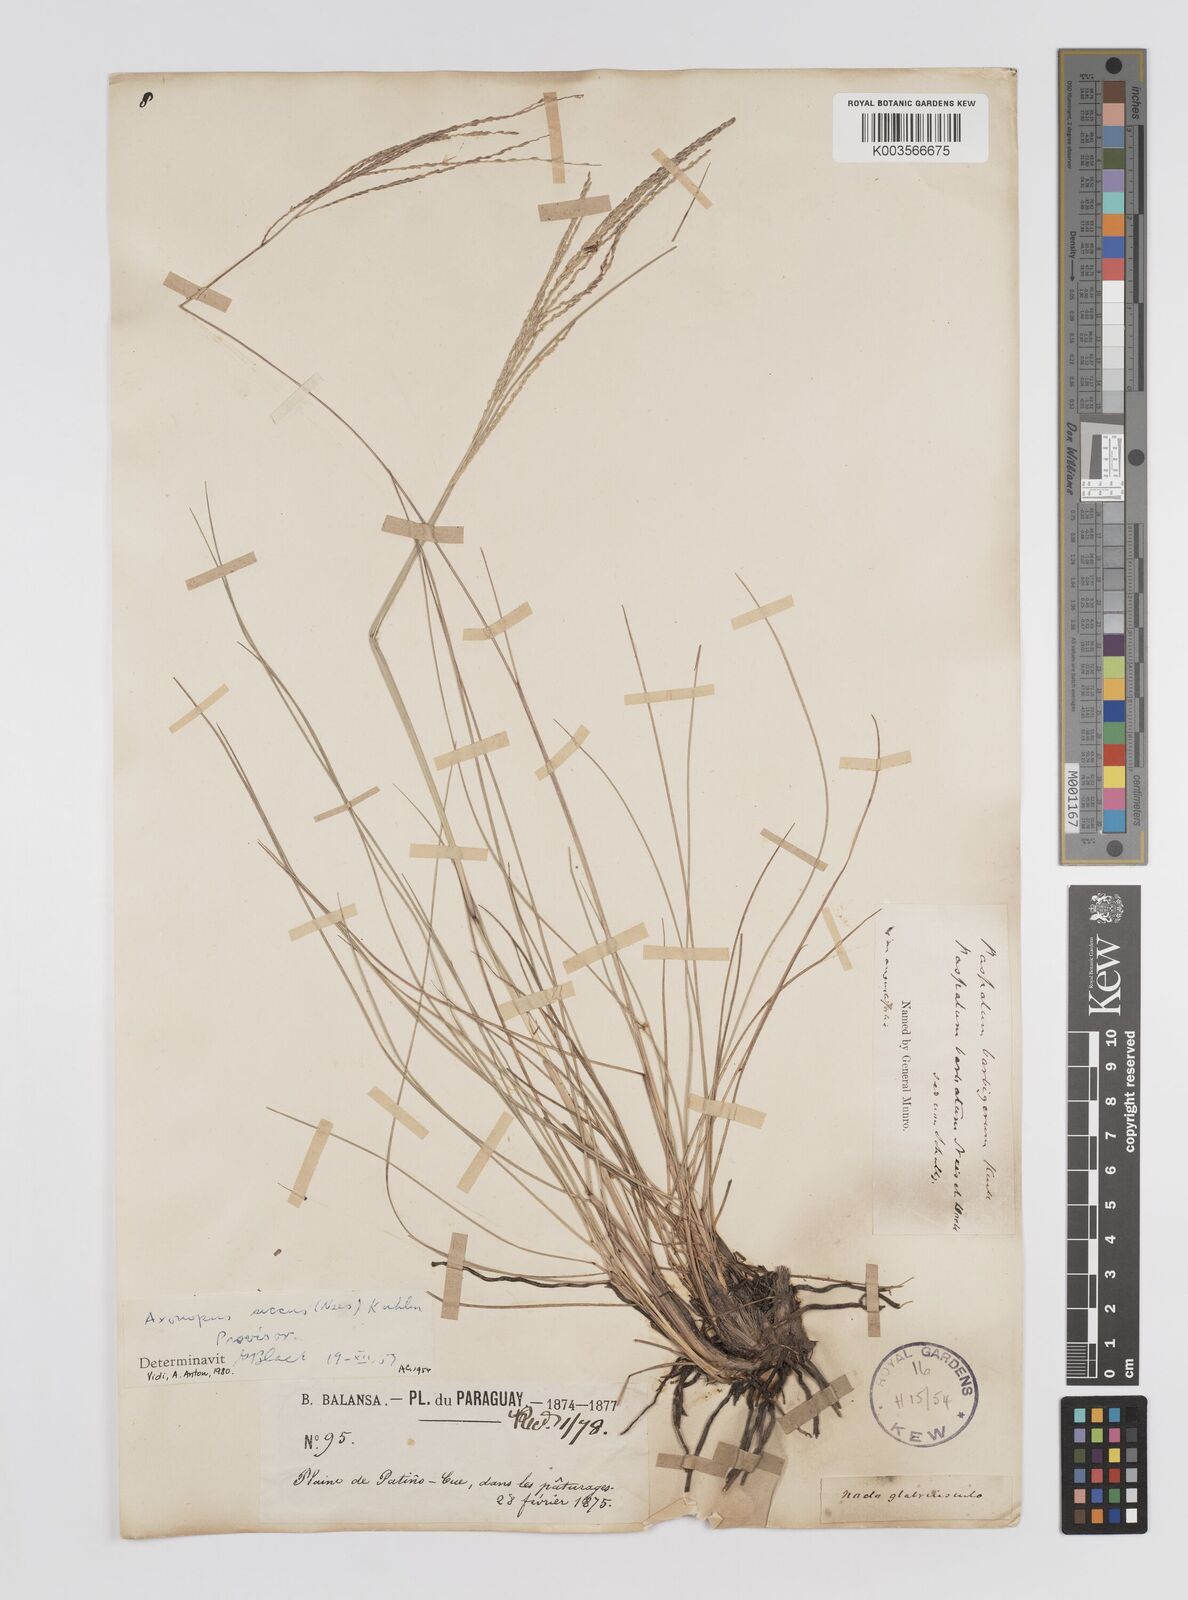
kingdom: Plantae
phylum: Tracheophyta
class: Liliopsida
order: Poales
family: Poaceae
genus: Axonopus
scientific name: Axonopus siccus
